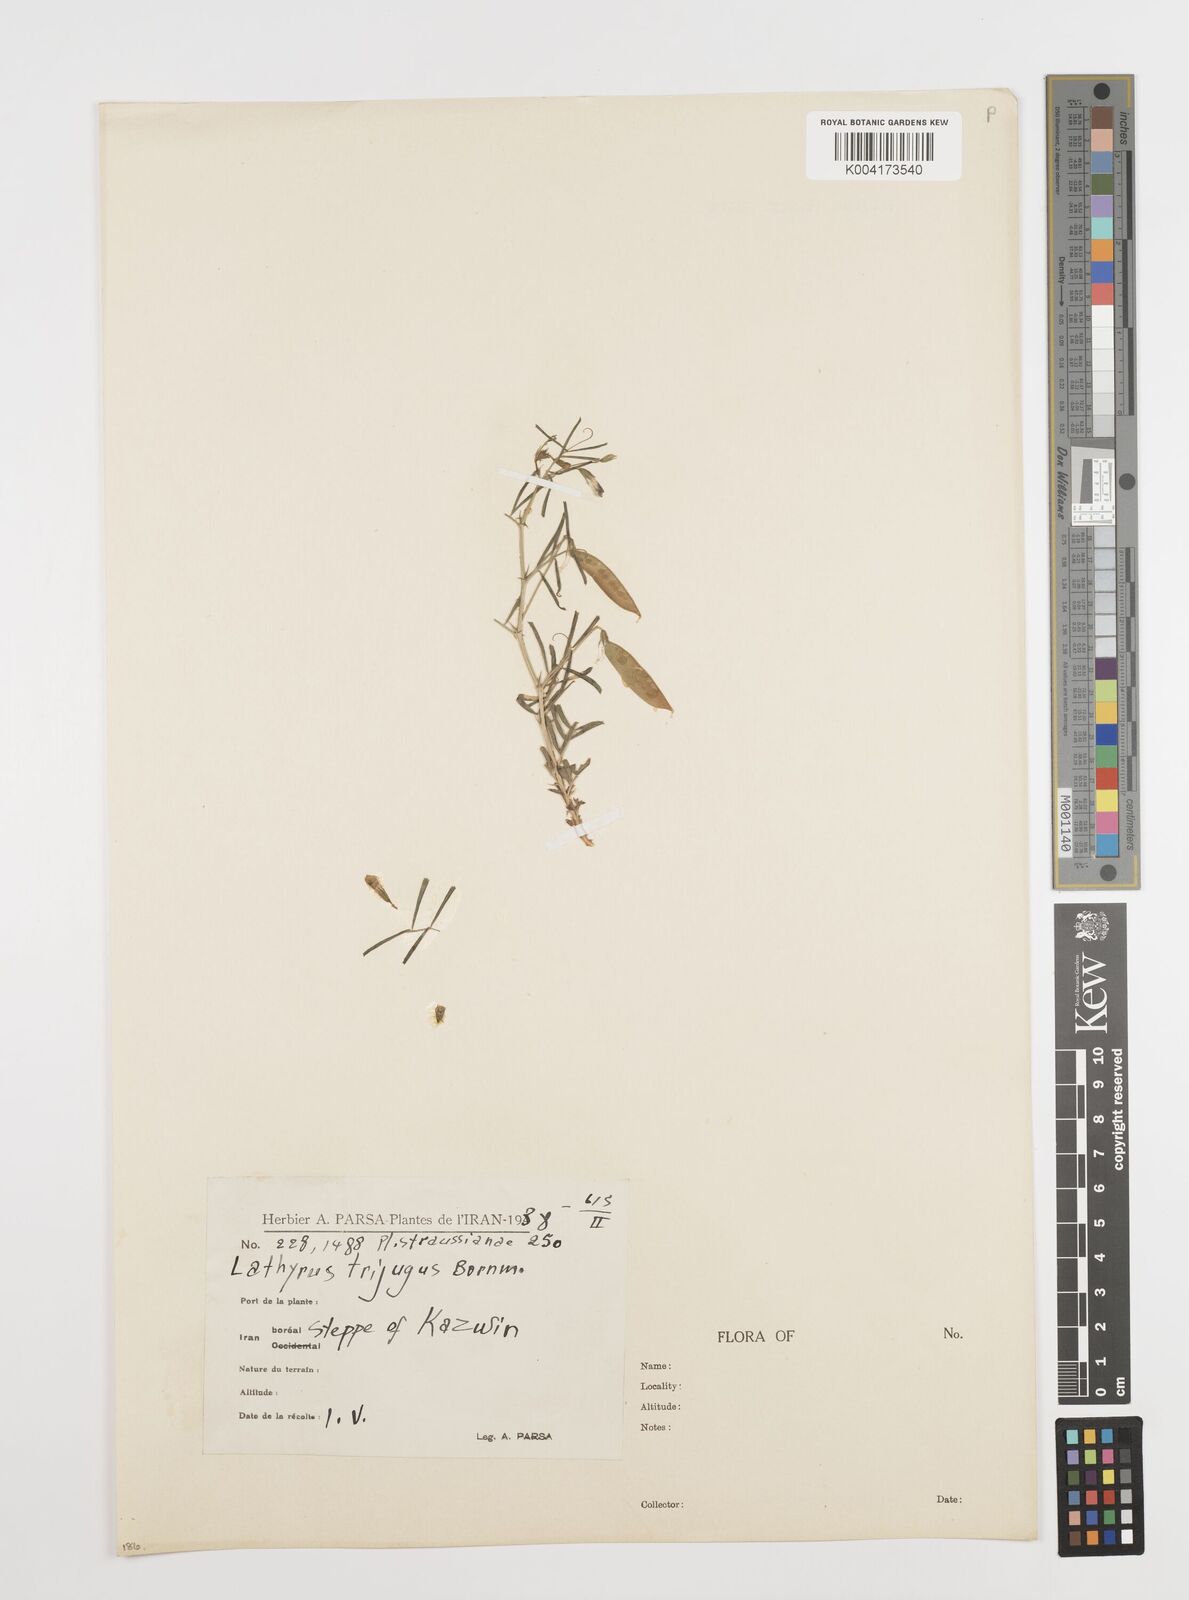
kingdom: Plantae
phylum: Tracheophyta
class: Magnoliopsida
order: Fabales
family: Fabaceae
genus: Vicia
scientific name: Vicia cappadocica
